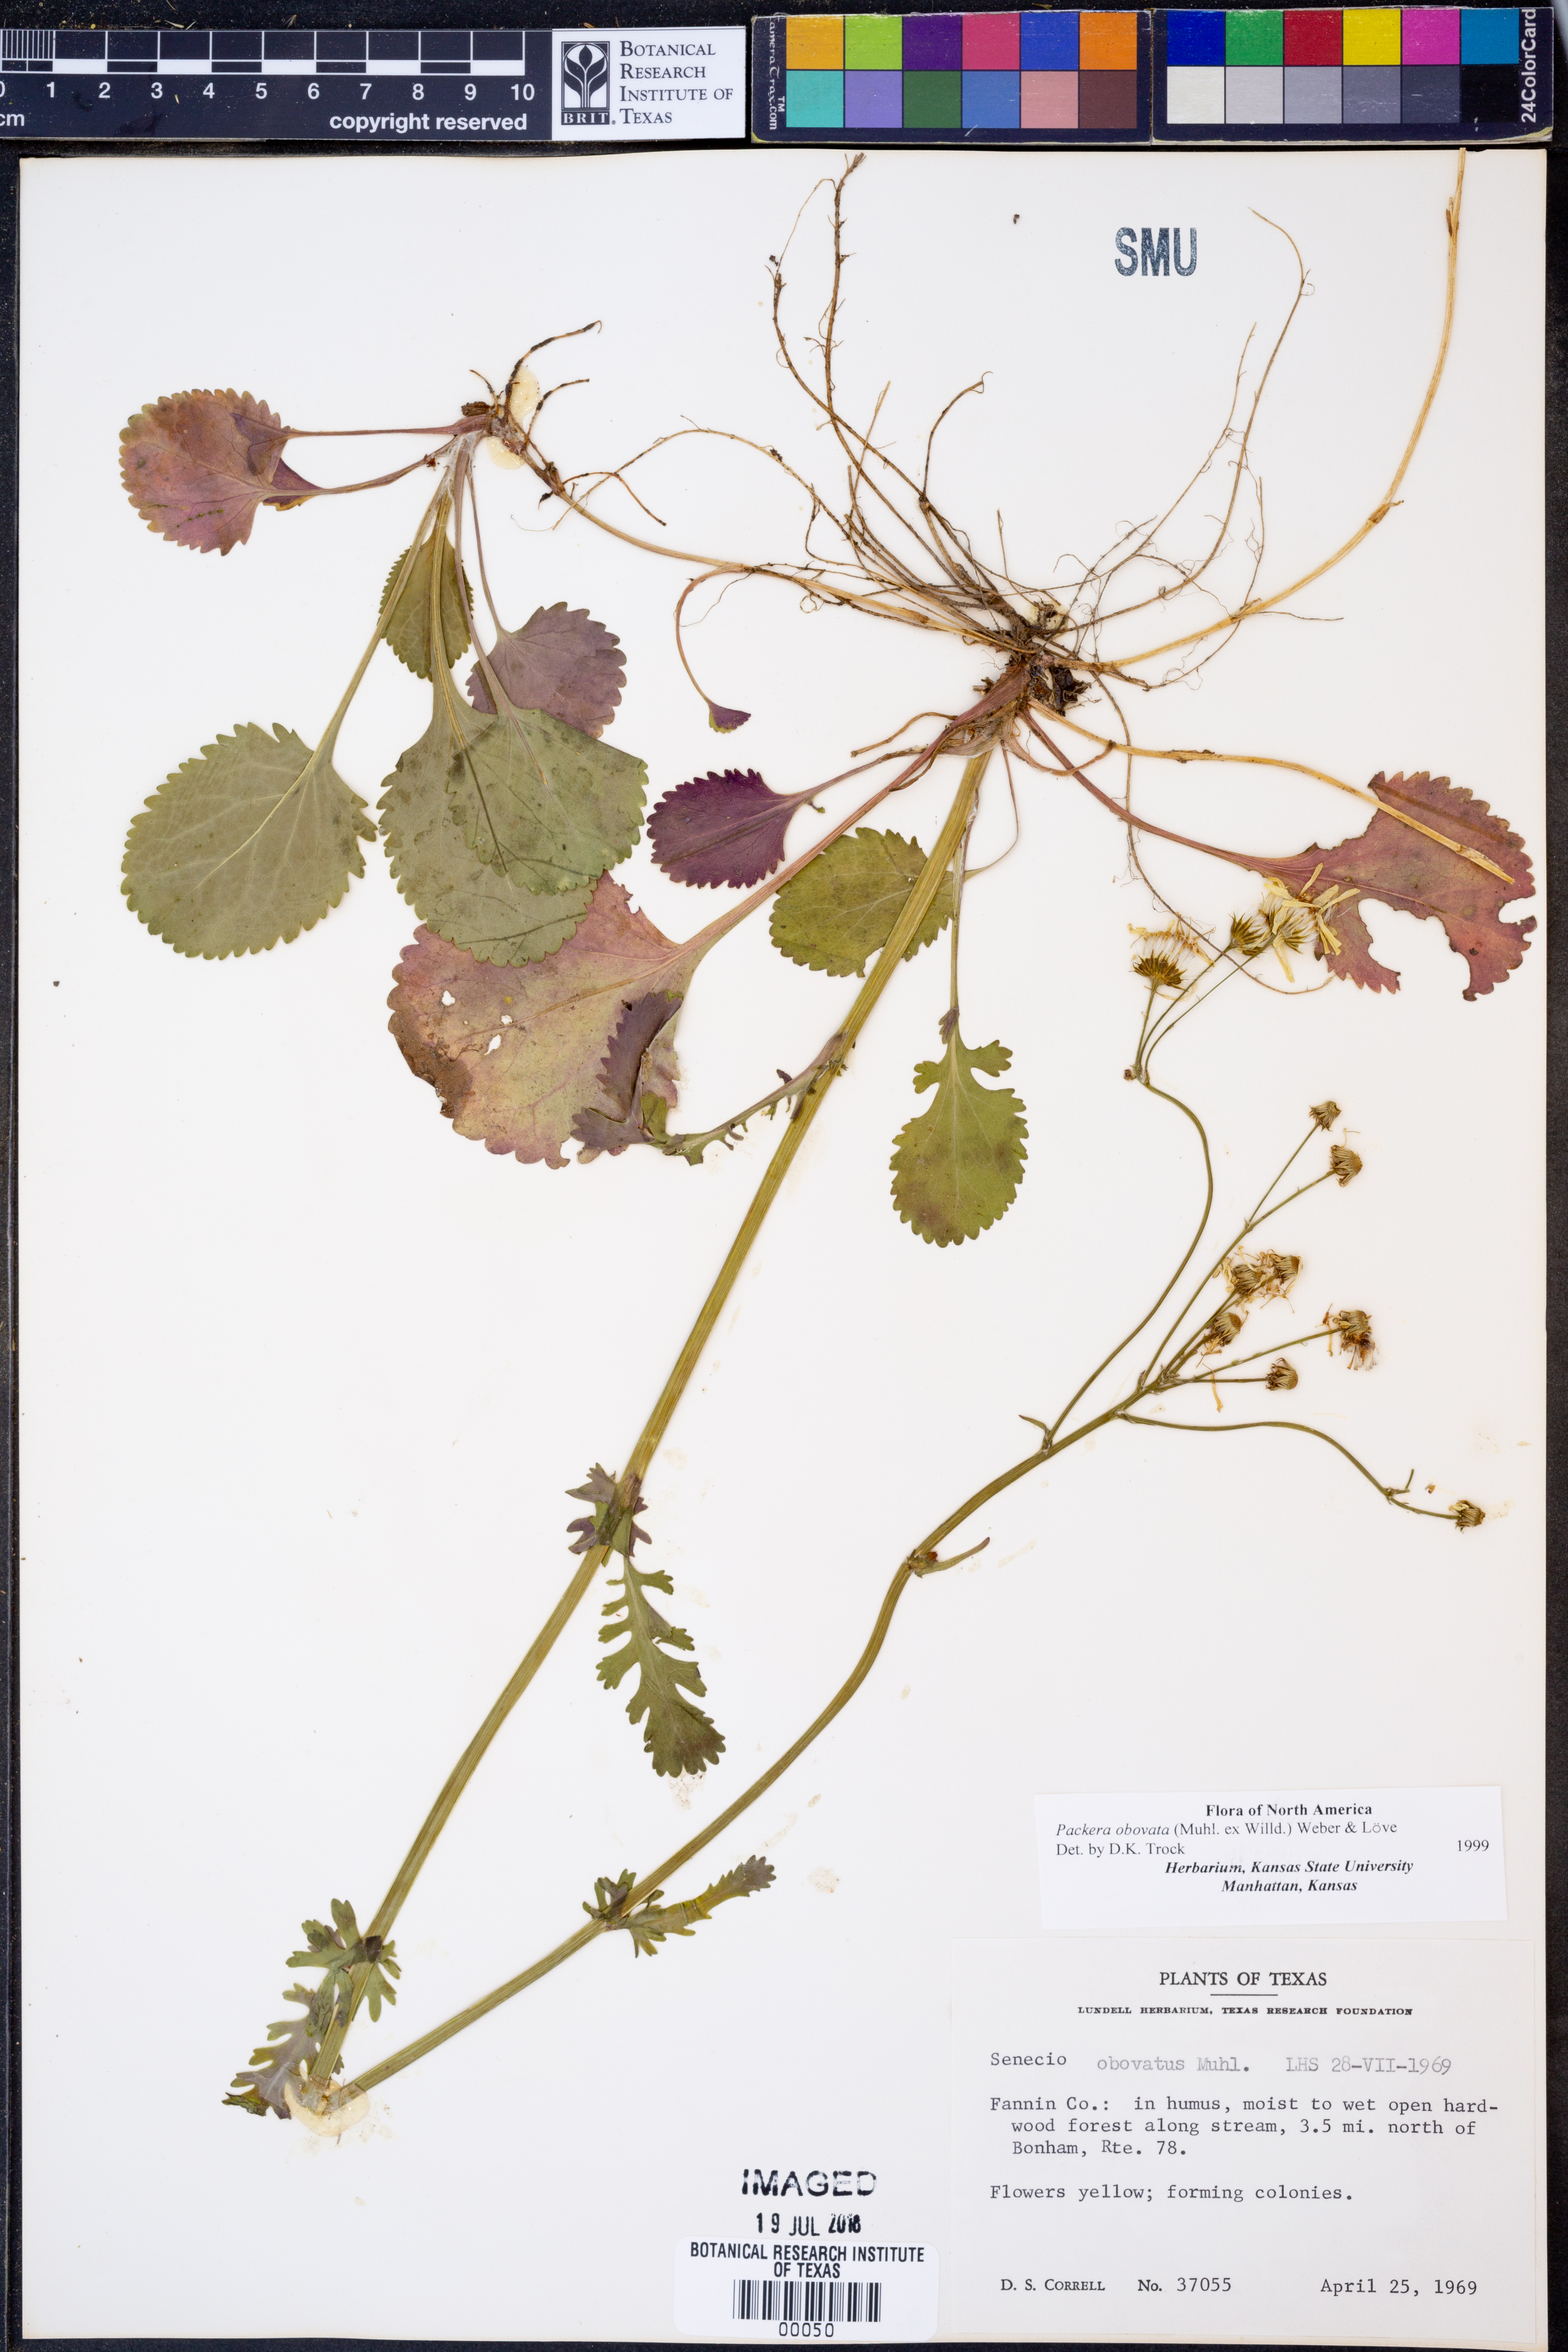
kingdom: Plantae
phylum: Tracheophyta
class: Magnoliopsida
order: Asterales
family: Asteraceae
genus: Packera
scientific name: Packera obovata
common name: Round-leaf ragwort
